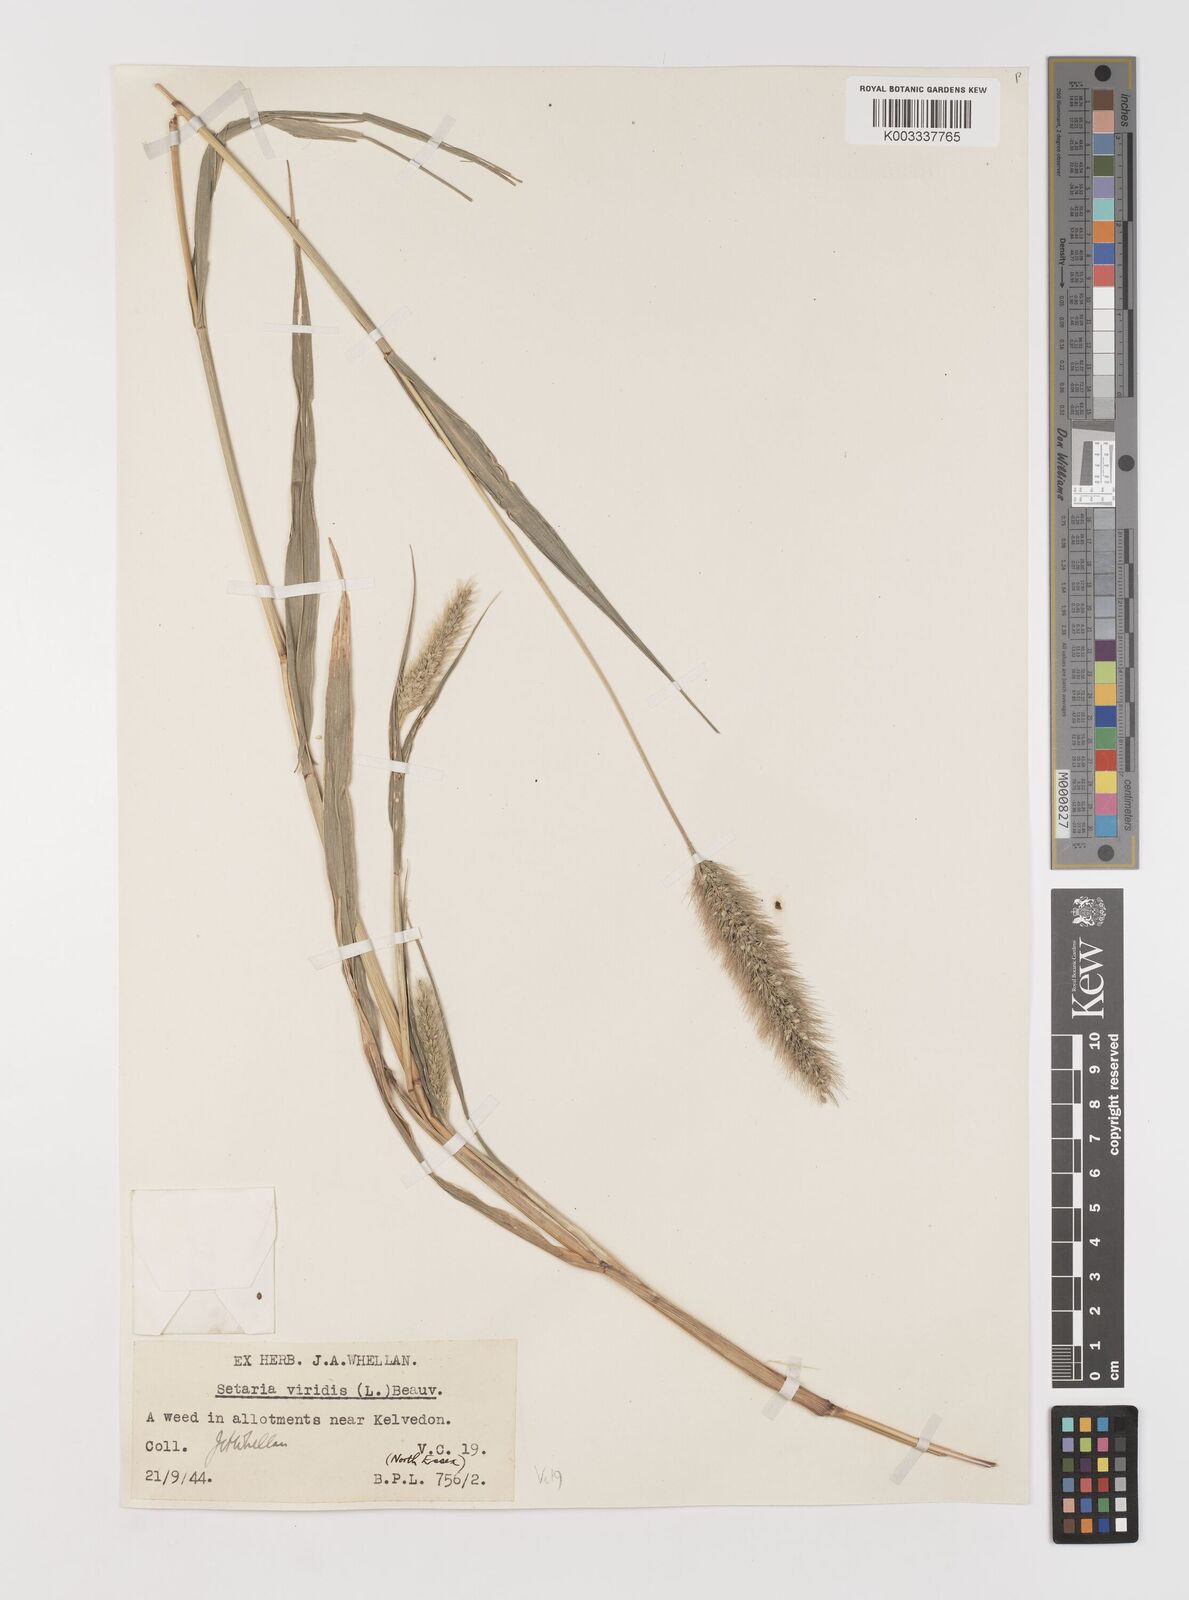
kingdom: Plantae
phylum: Tracheophyta
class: Liliopsida
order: Poales
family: Poaceae
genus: Setaria
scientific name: Setaria viridis
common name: Green bristlegrass
